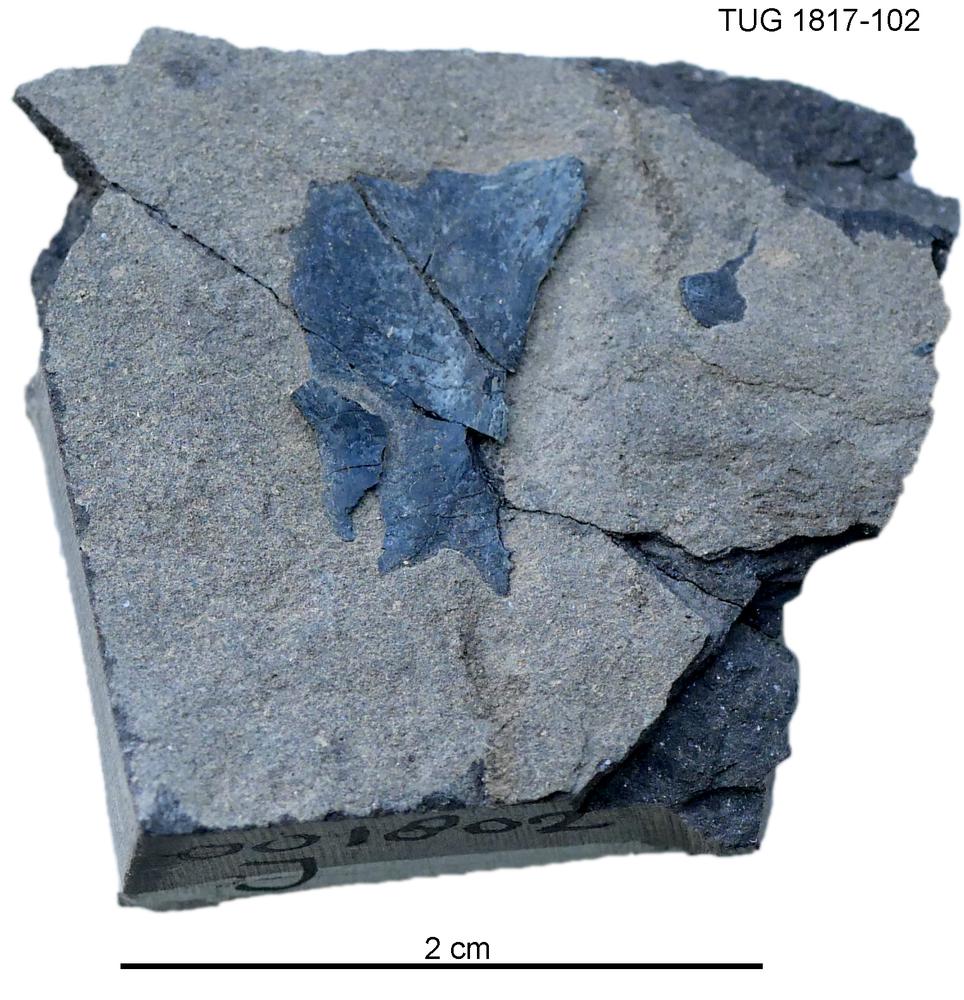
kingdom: Animalia
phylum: Chordata
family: Coccosteidae
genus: Millerosteus
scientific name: Millerosteus minor
